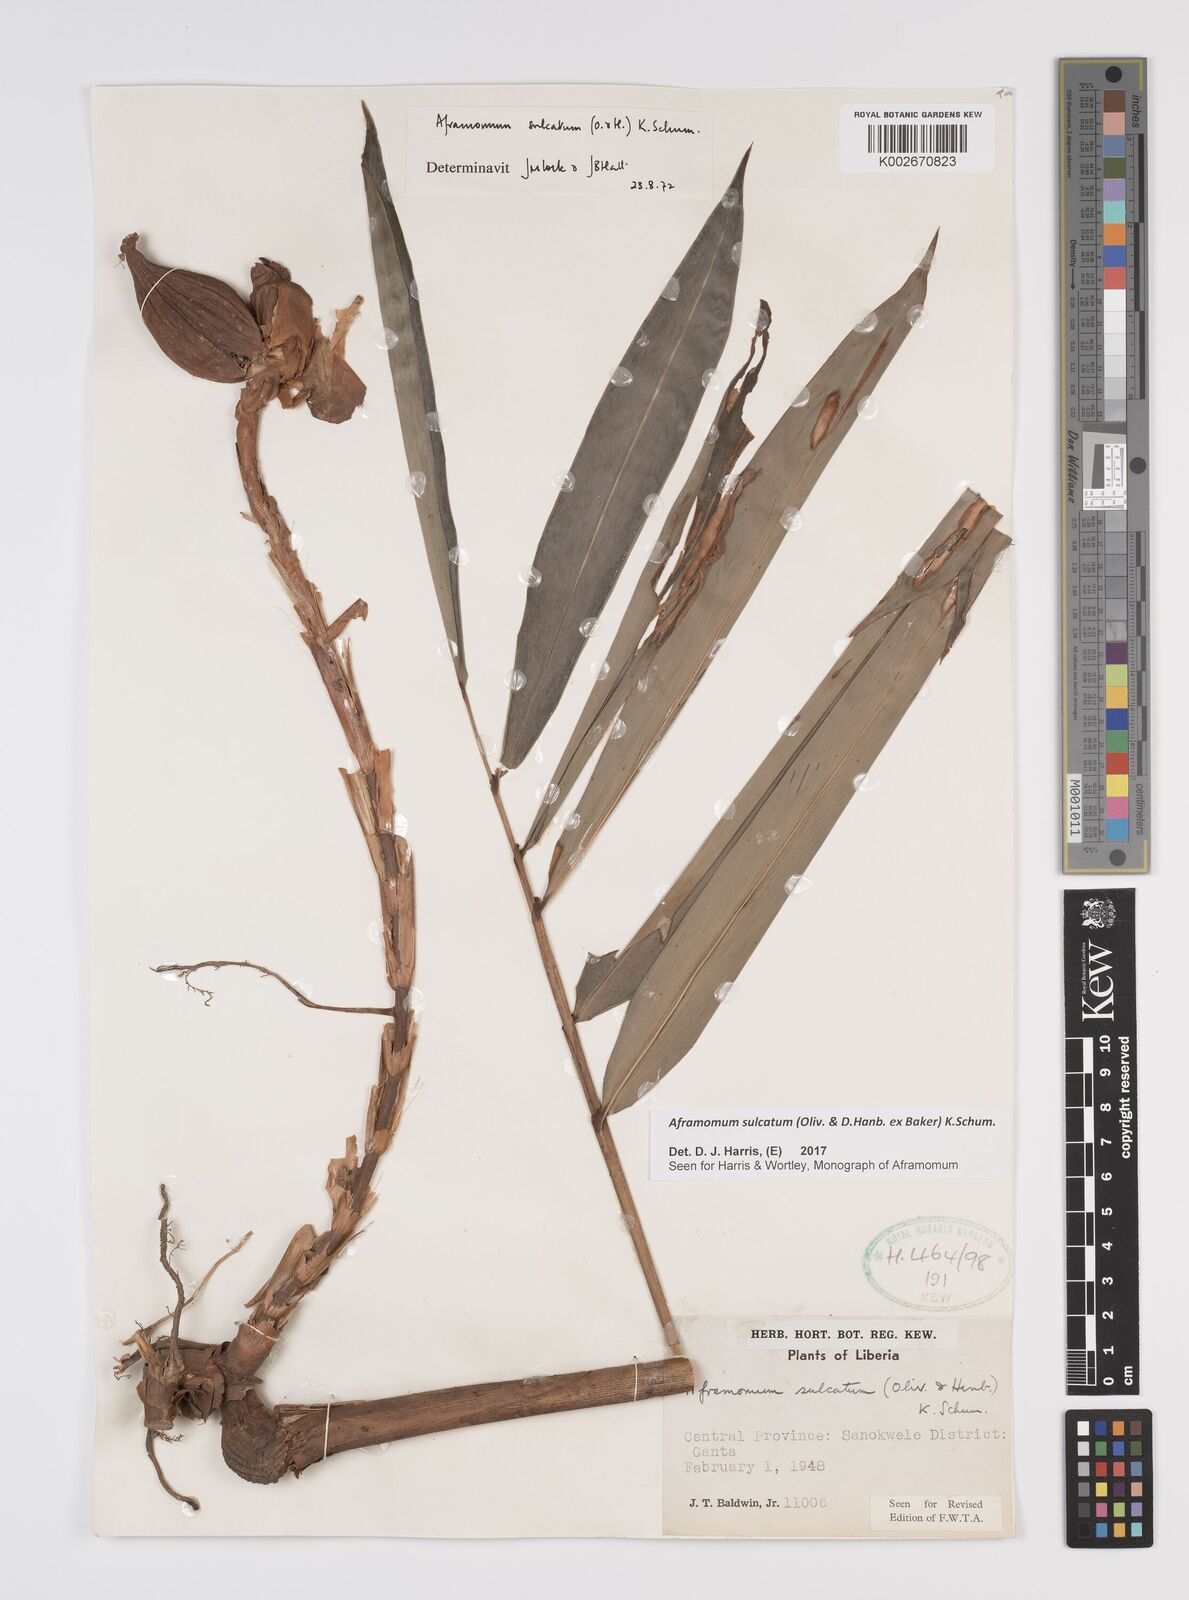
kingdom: Plantae
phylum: Tracheophyta
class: Liliopsida
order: Zingiberales
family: Zingiberaceae
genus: Aframomum
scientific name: Aframomum sulcatum
